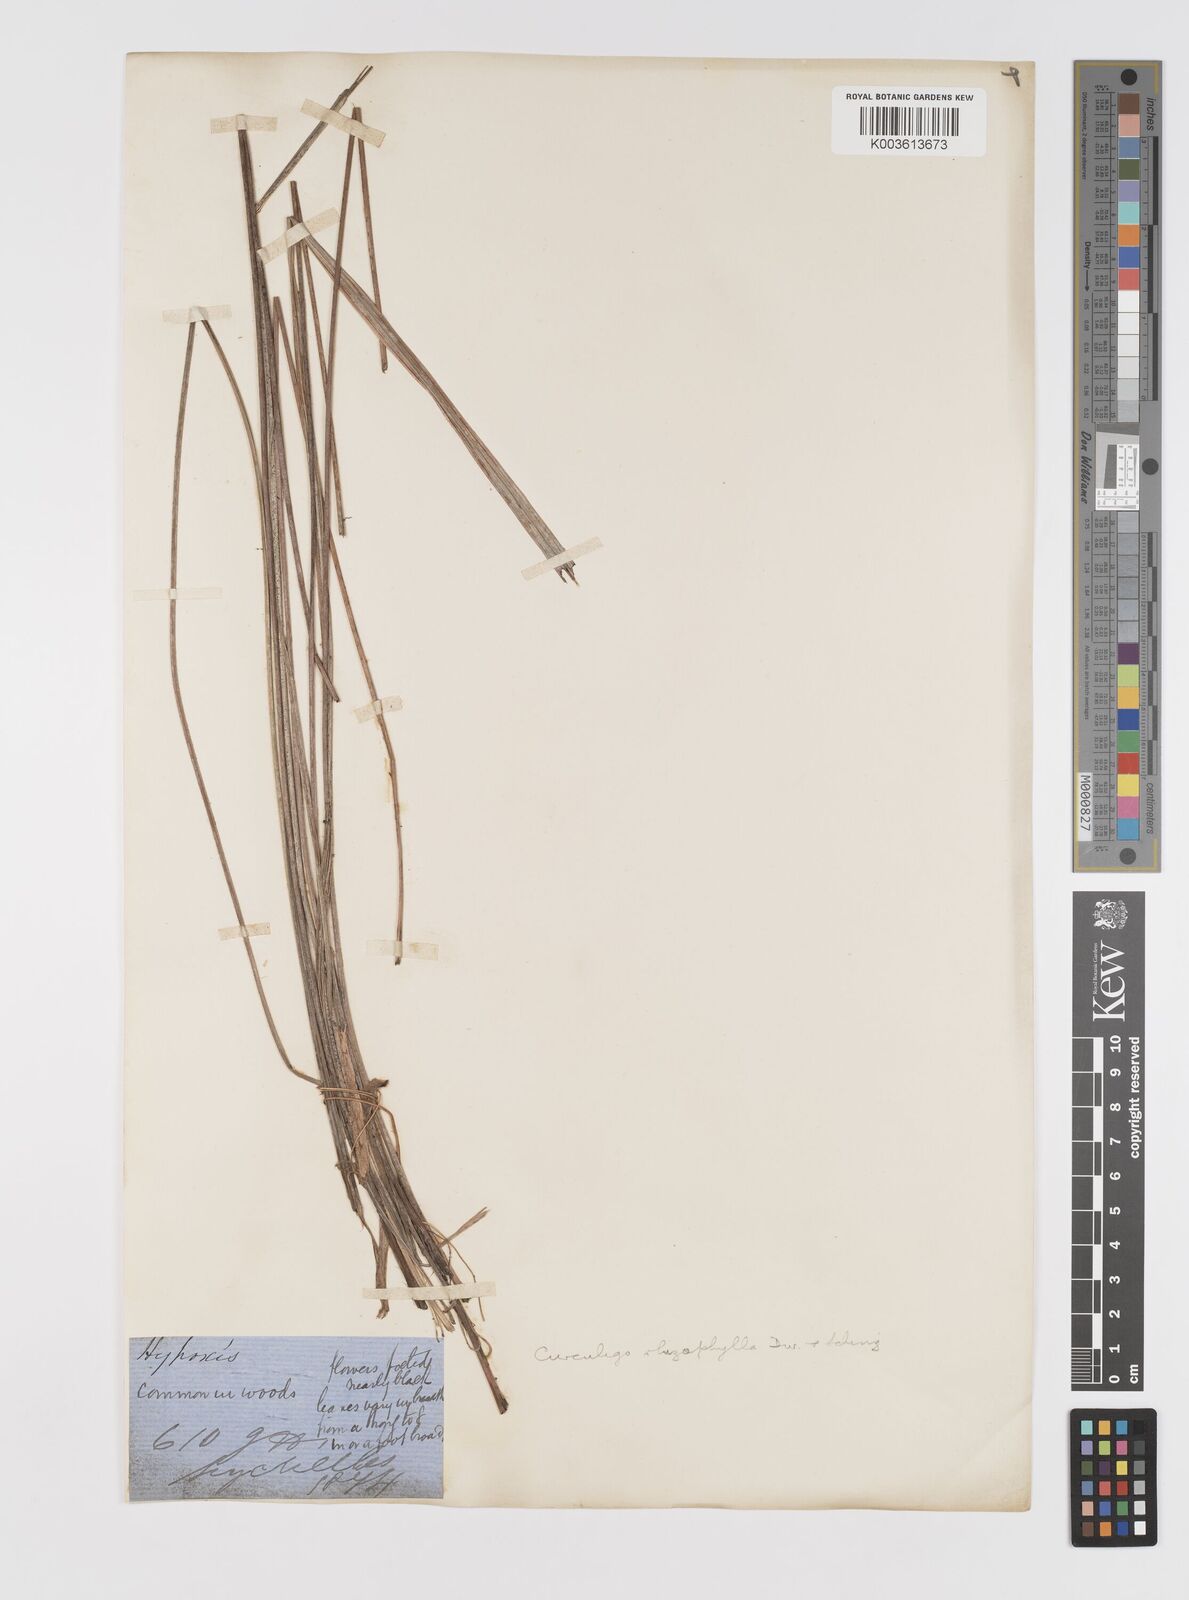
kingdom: Plantae
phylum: Tracheophyta
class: Liliopsida
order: Asparagales
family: Hypoxidaceae
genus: Curculigo
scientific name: Curculigo rhizophylla
